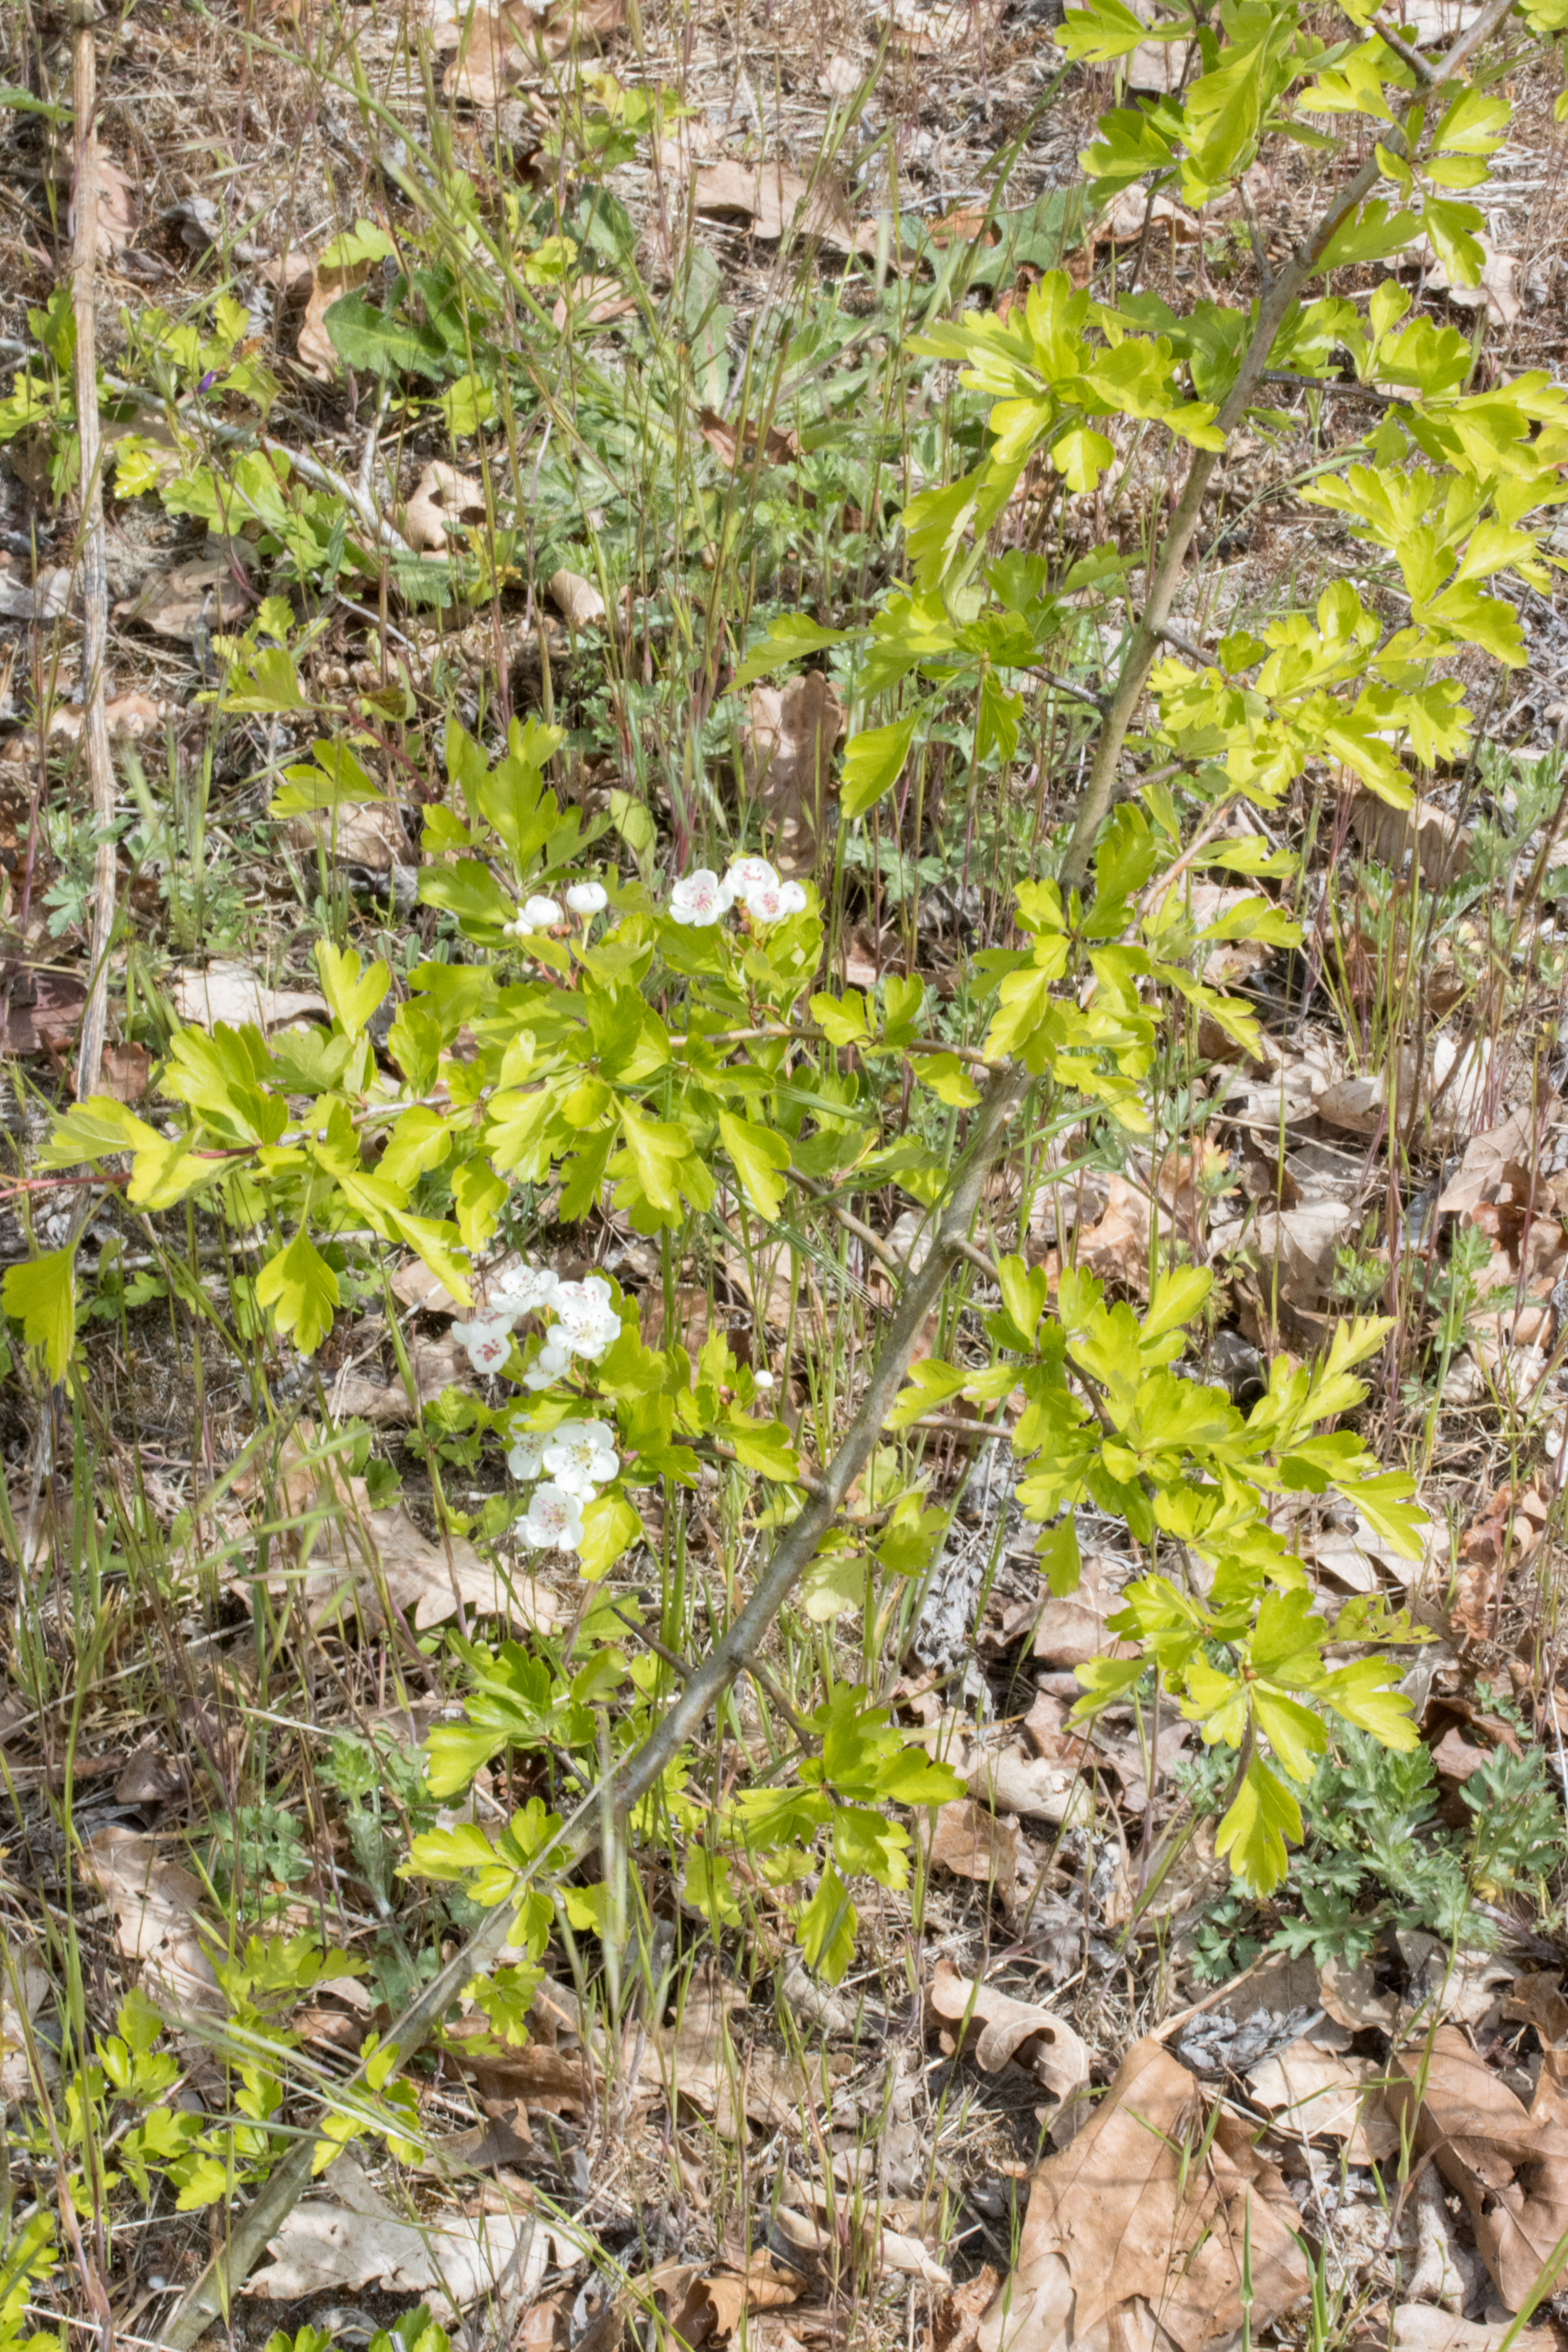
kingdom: Plantae
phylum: Tracheophyta
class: Magnoliopsida
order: Rosales
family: Rosaceae
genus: Crataegus
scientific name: Crataegus media
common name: Almindelig hvidtjørn × engriflet hvidtjørn
